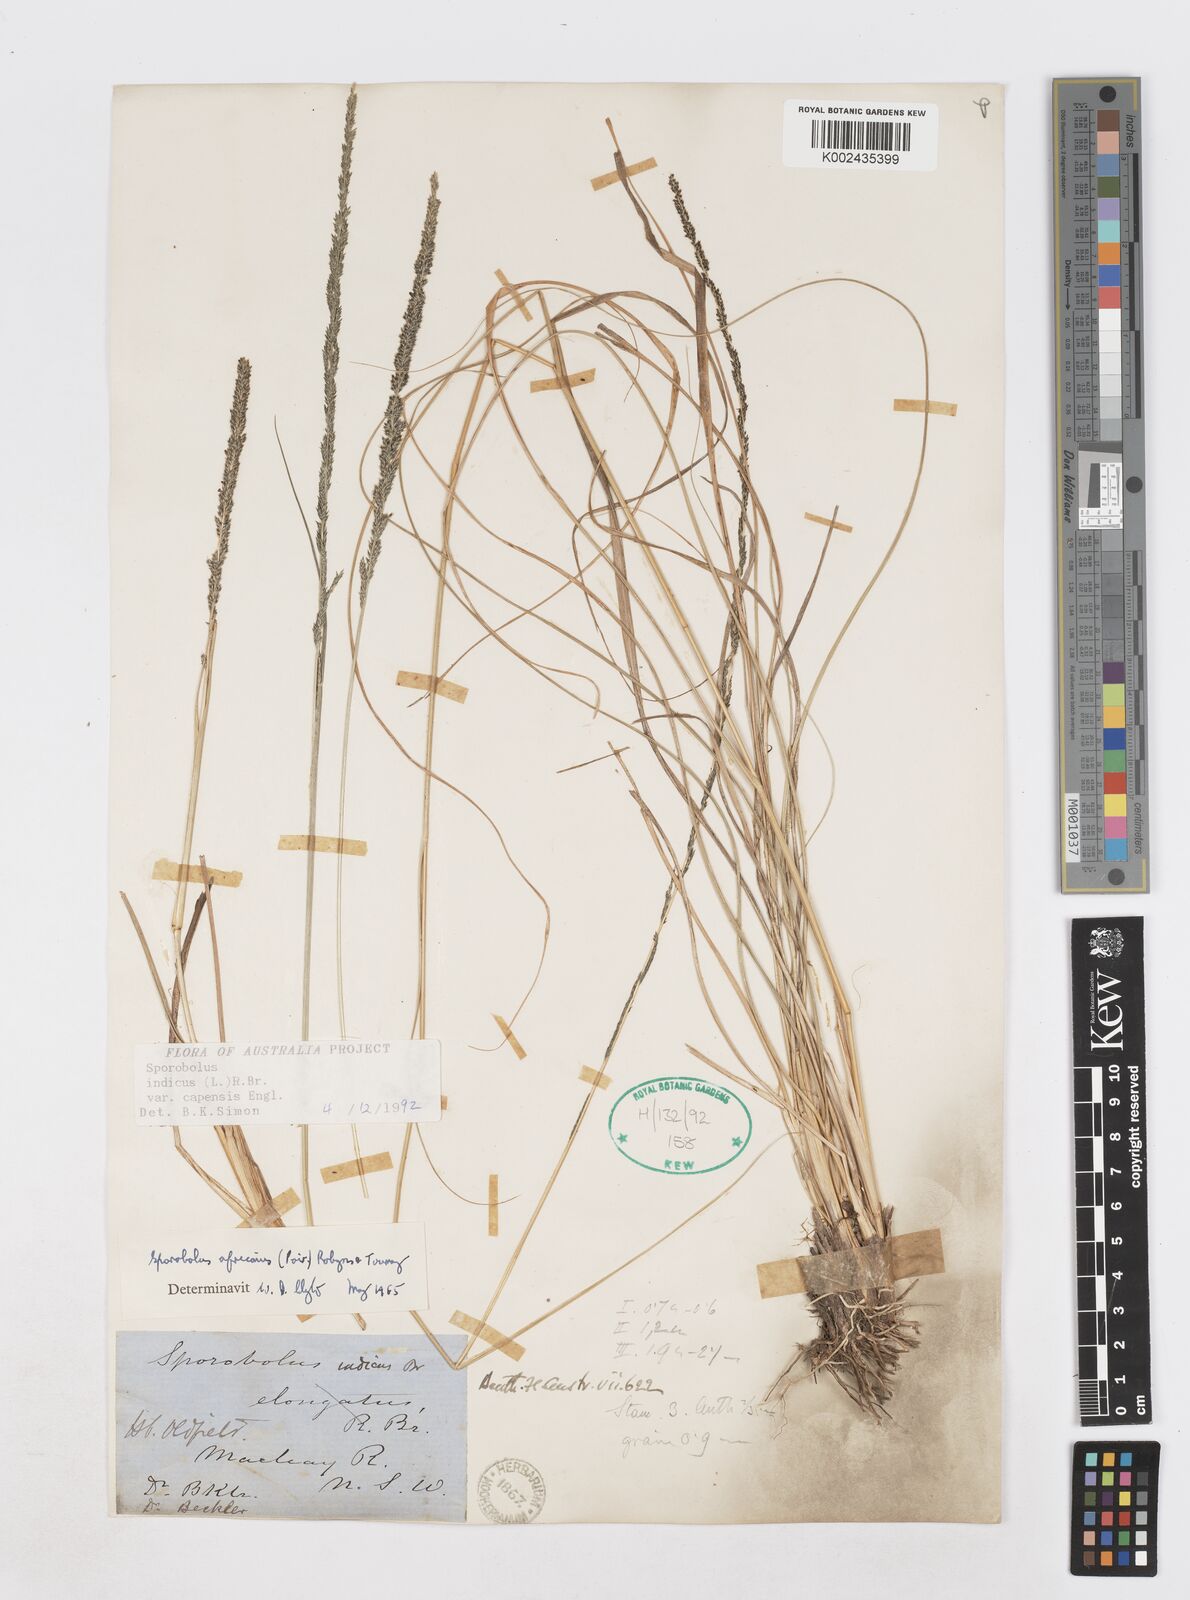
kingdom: Plantae
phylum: Tracheophyta
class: Liliopsida
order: Poales
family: Poaceae
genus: Sporobolus
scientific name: Sporobolus africanus
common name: African dropseed
